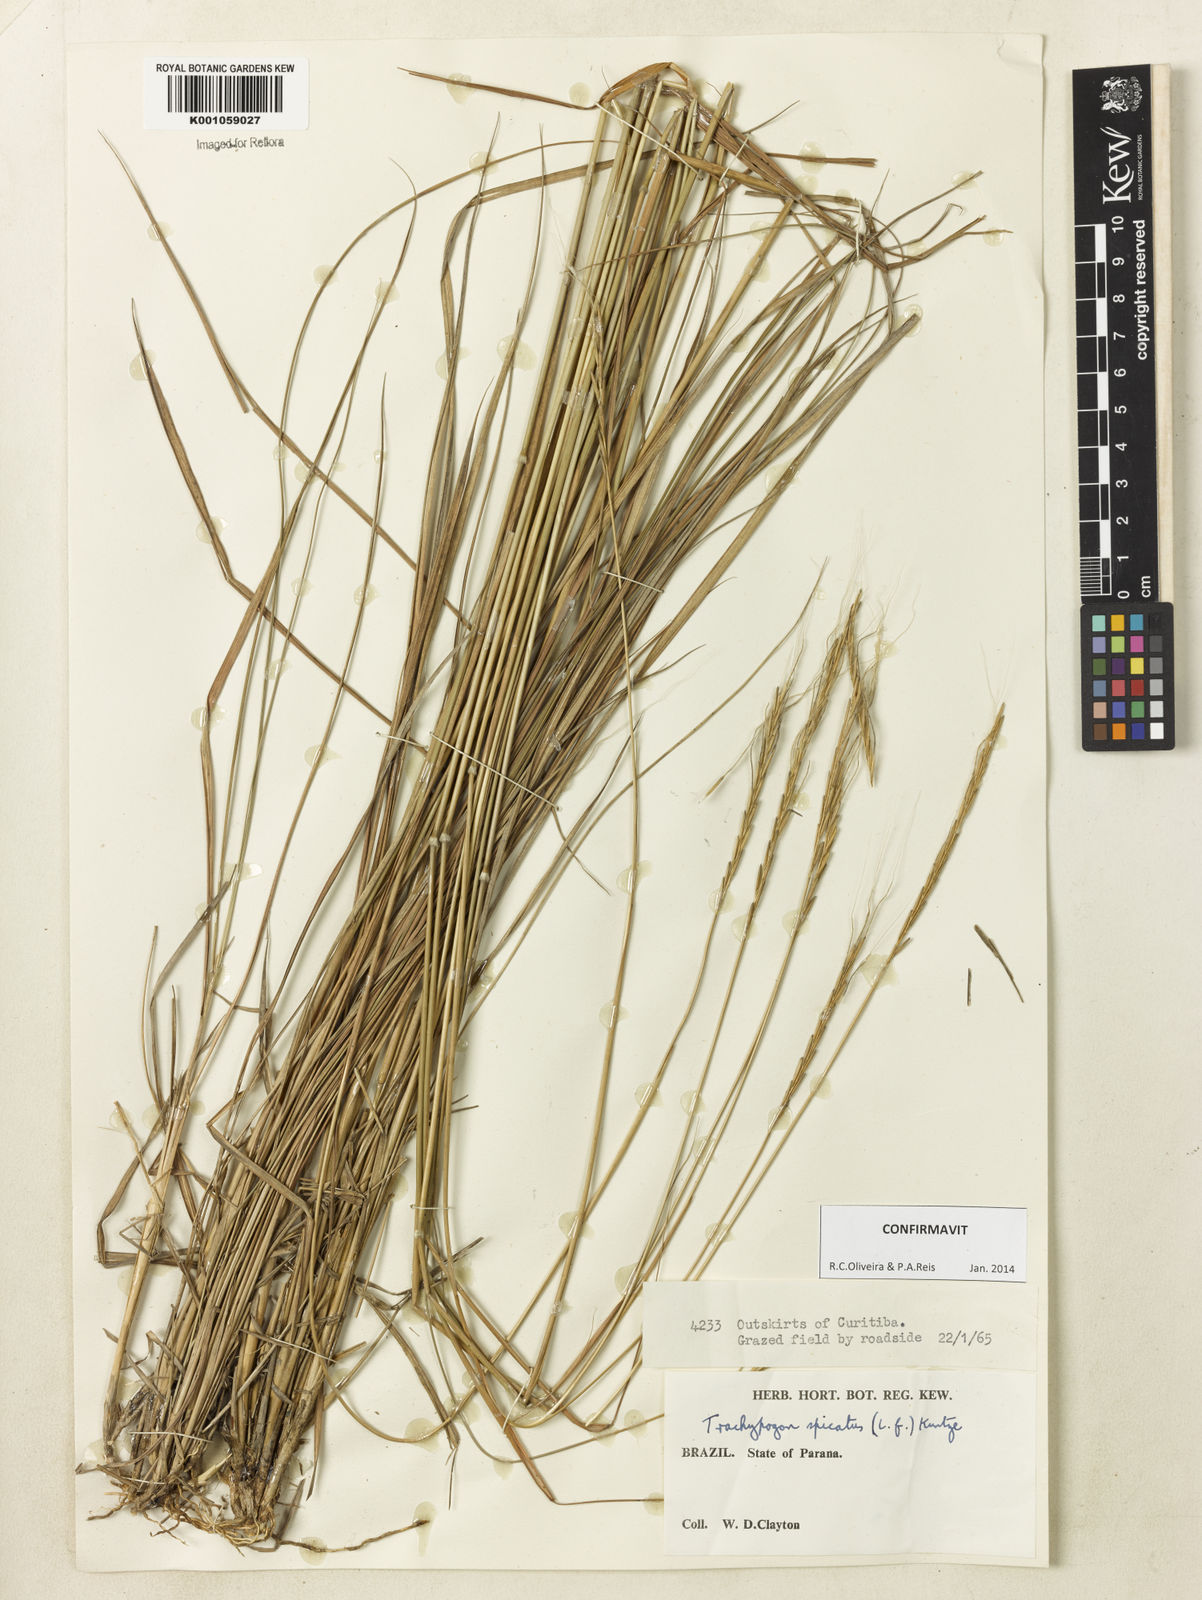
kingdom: Plantae
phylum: Tracheophyta
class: Liliopsida
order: Poales
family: Poaceae
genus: Trachypogon
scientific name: Trachypogon spicatus
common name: Crinkle-awn
